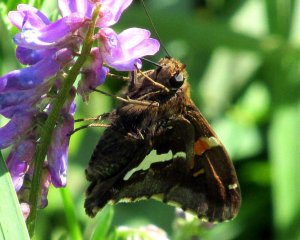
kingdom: Animalia
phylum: Arthropoda
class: Insecta
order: Lepidoptera
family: Hesperiidae
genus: Epargyreus
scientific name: Epargyreus clarus
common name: Silver-spotted Skipper
